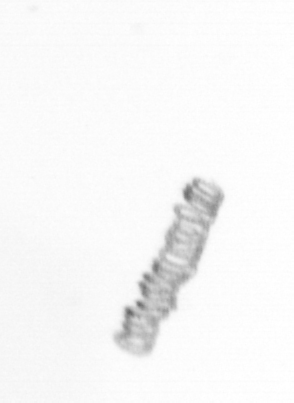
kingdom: Chromista
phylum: Ochrophyta
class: Bacillariophyceae
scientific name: Bacillariophyceae
